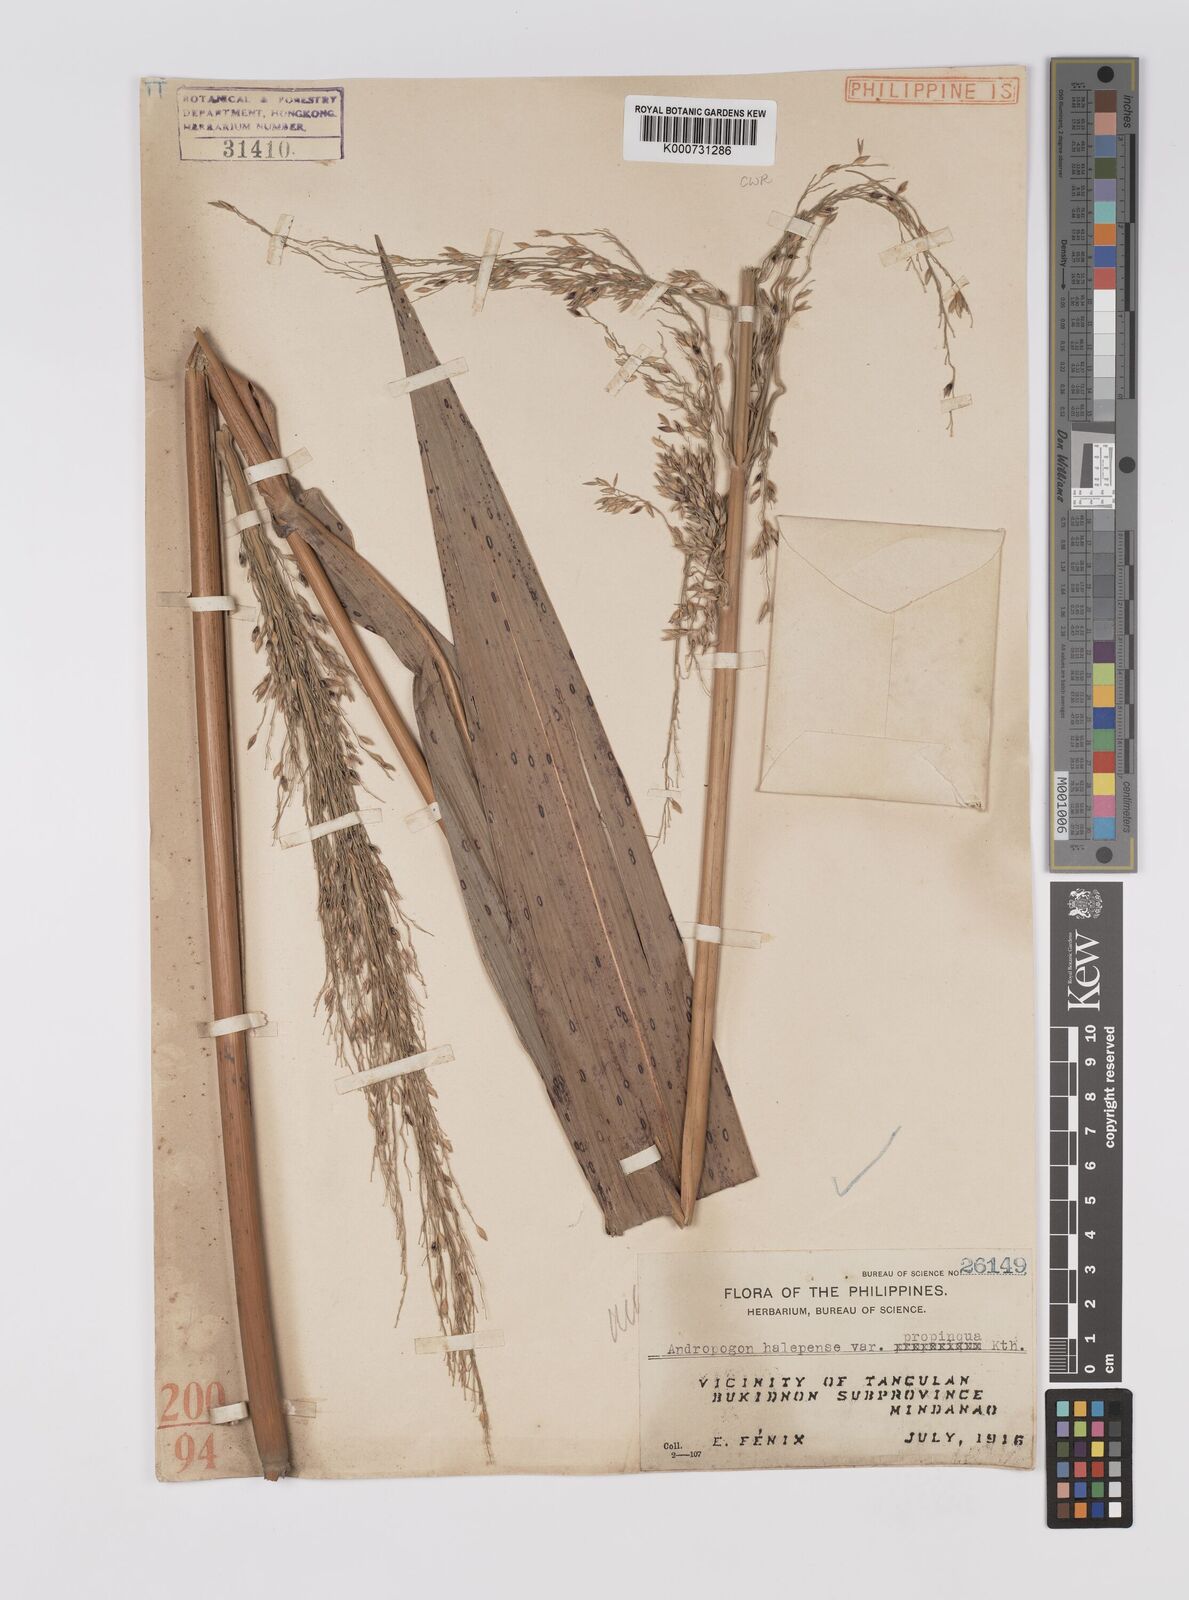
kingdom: Plantae
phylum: Tracheophyta
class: Liliopsida
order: Poales
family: Poaceae
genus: Andropogon
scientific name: Andropogon
